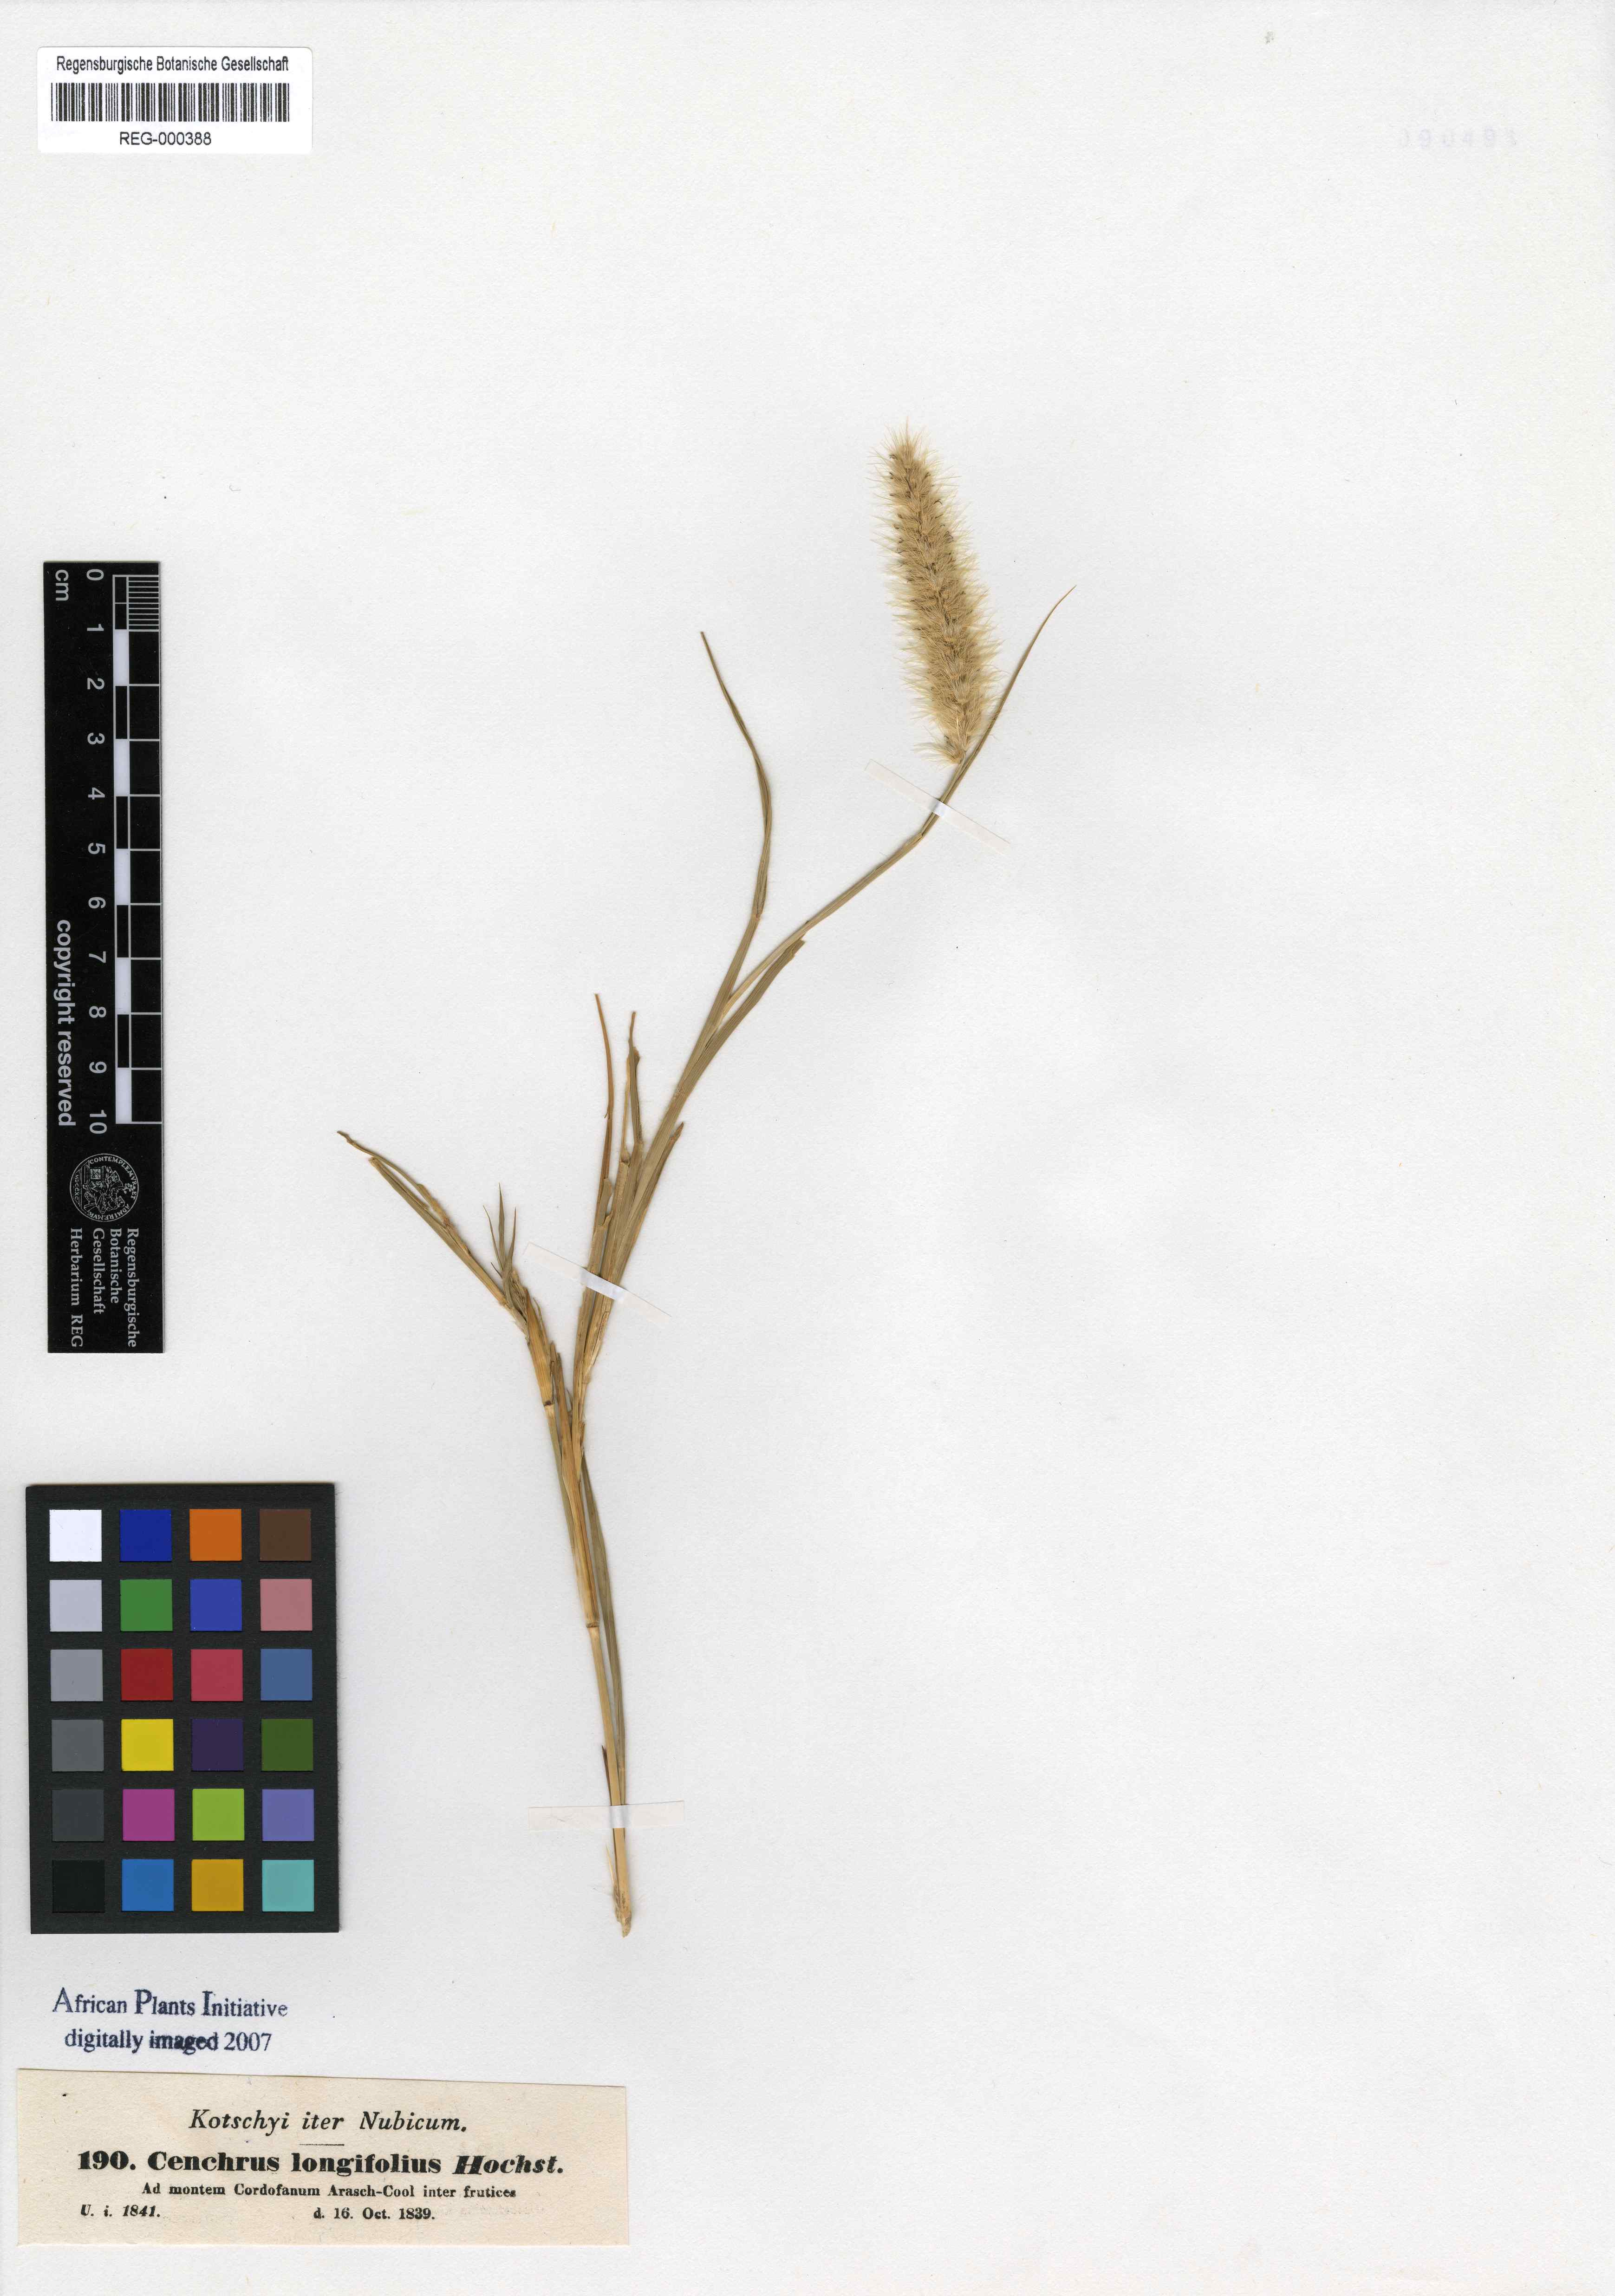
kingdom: Plantae
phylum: Tracheophyta
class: Liliopsida
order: Poales
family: Poaceae
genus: Cenchrus
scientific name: Cenchrus ciliaris
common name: Buffelgrass
